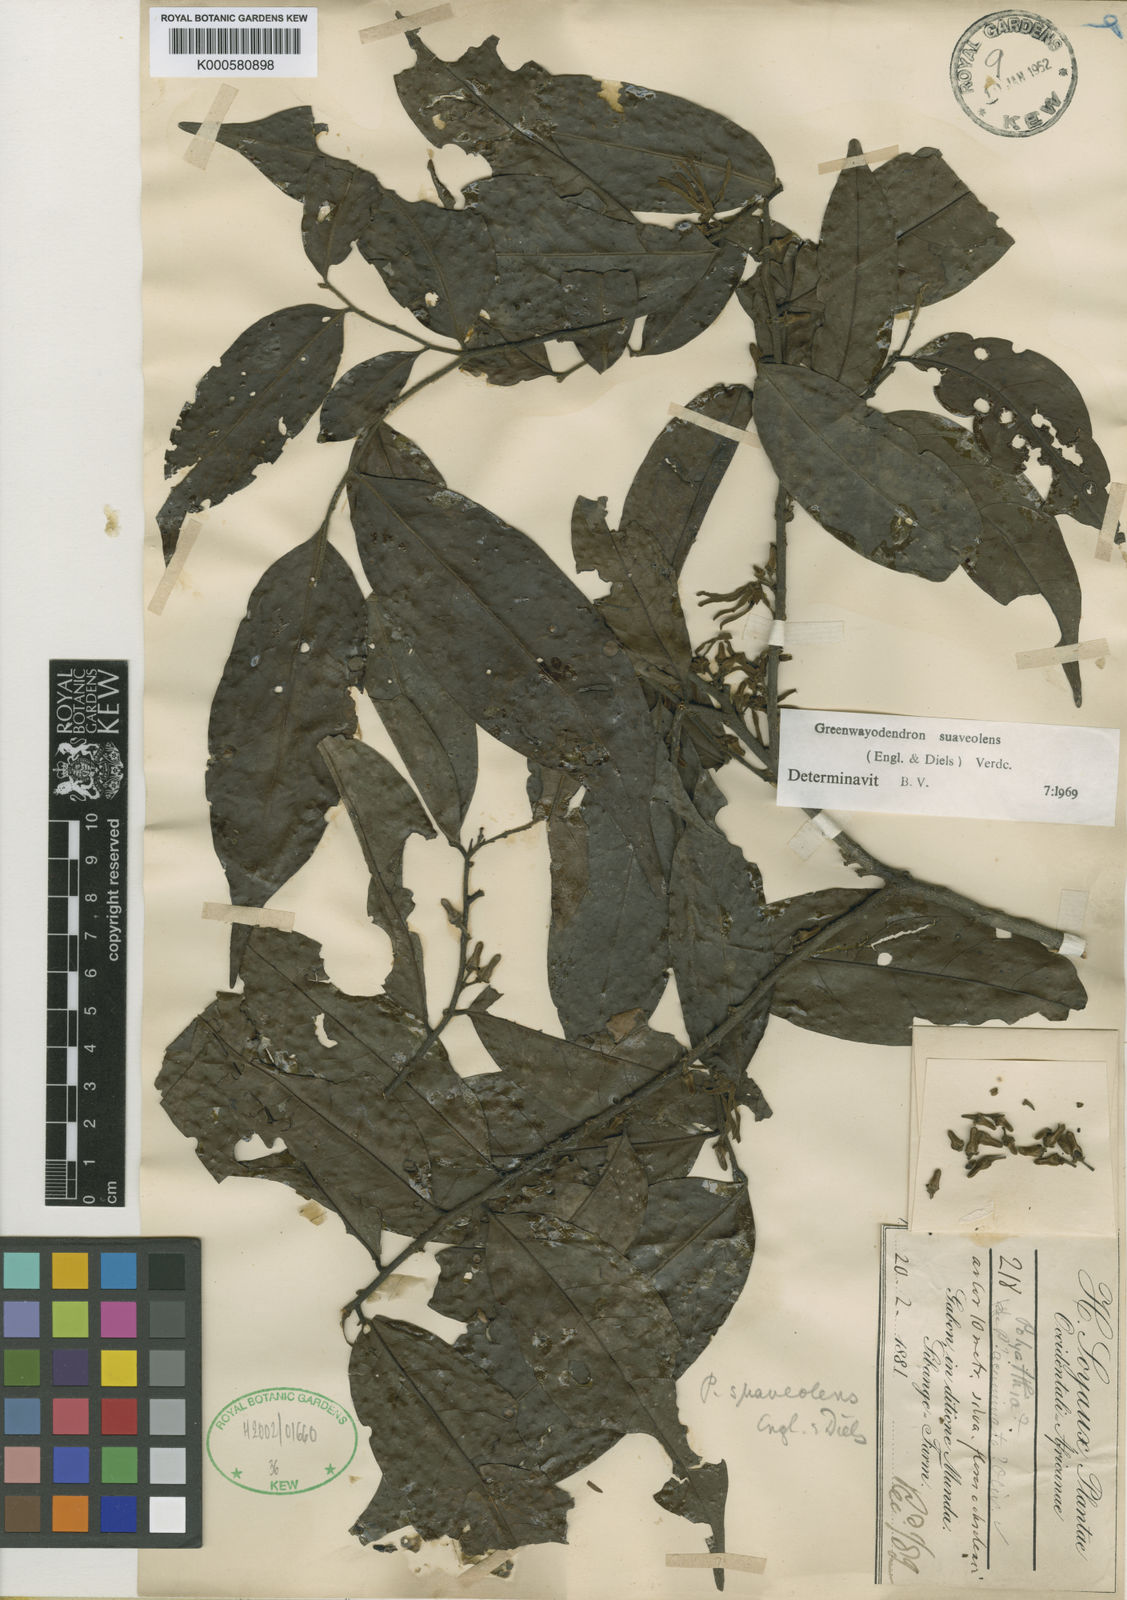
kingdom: Plantae
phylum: Tracheophyta
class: Magnoliopsida
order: Magnoliales
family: Annonaceae
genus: Greenwayodendron
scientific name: Greenwayodendron suaveolens
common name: Molinda
